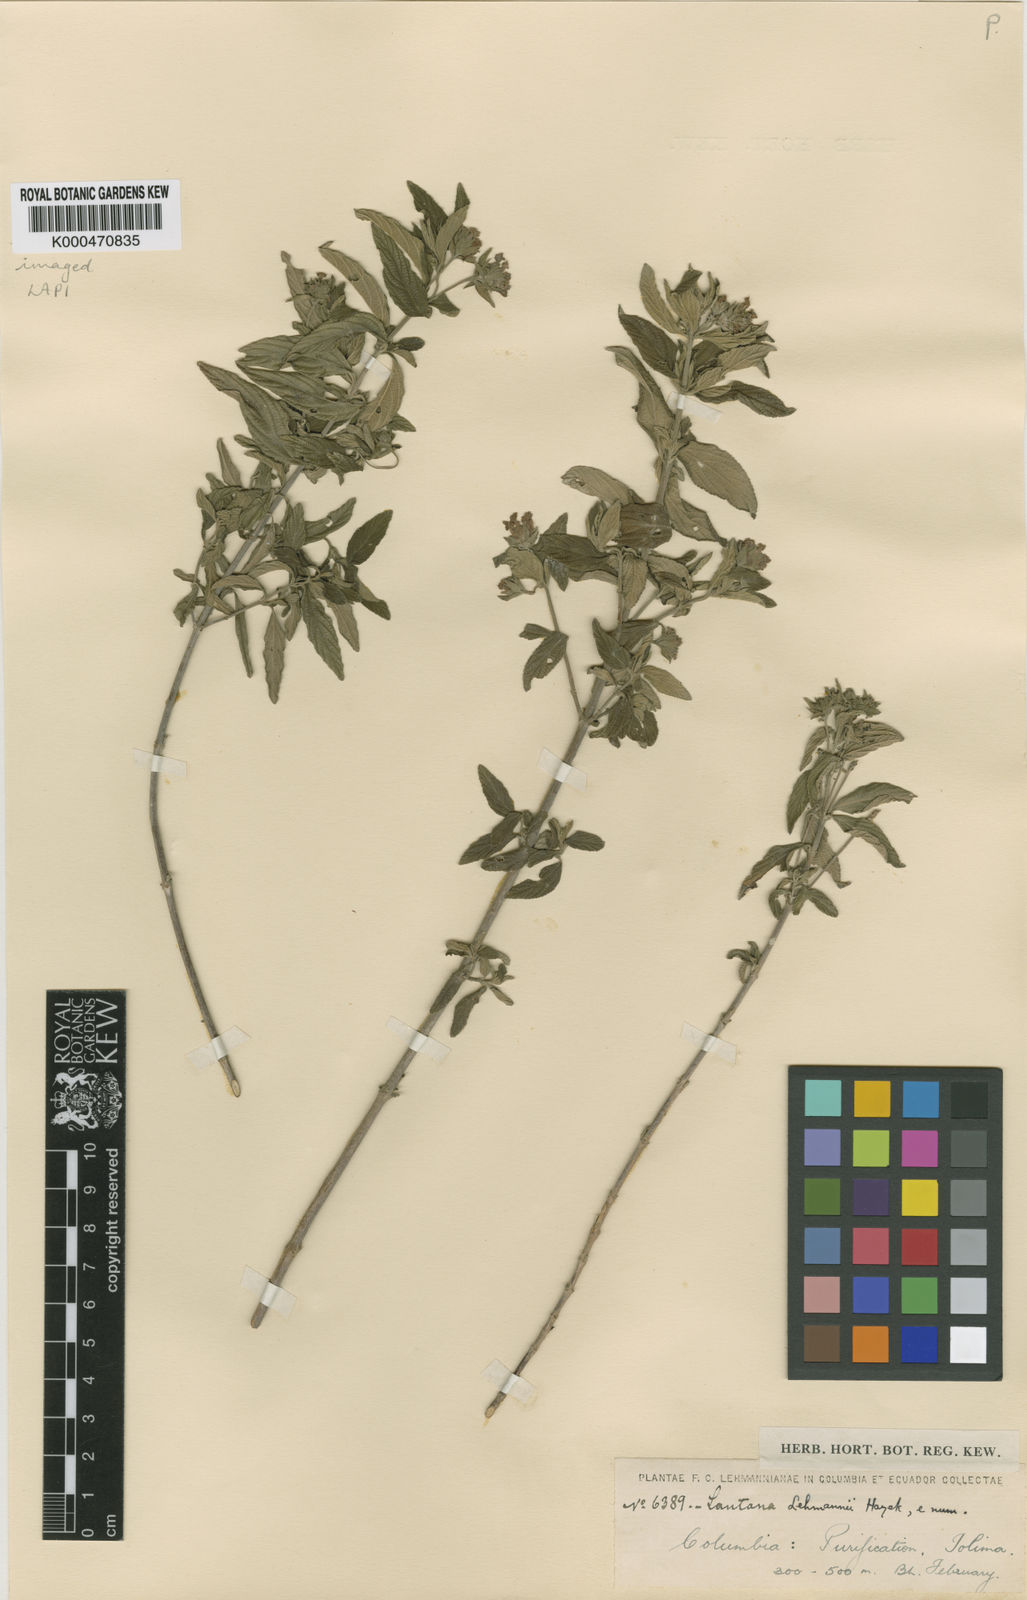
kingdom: Plantae
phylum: Tracheophyta
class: Magnoliopsida
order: Lamiales
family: Verbenaceae
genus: Lantana
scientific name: Lantana salicifolia
